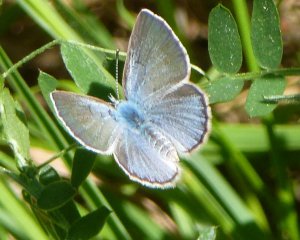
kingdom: Animalia
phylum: Arthropoda
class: Insecta
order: Lepidoptera
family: Lycaenidae
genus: Glaucopsyche
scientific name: Glaucopsyche lygdamus
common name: Silvery Blue
